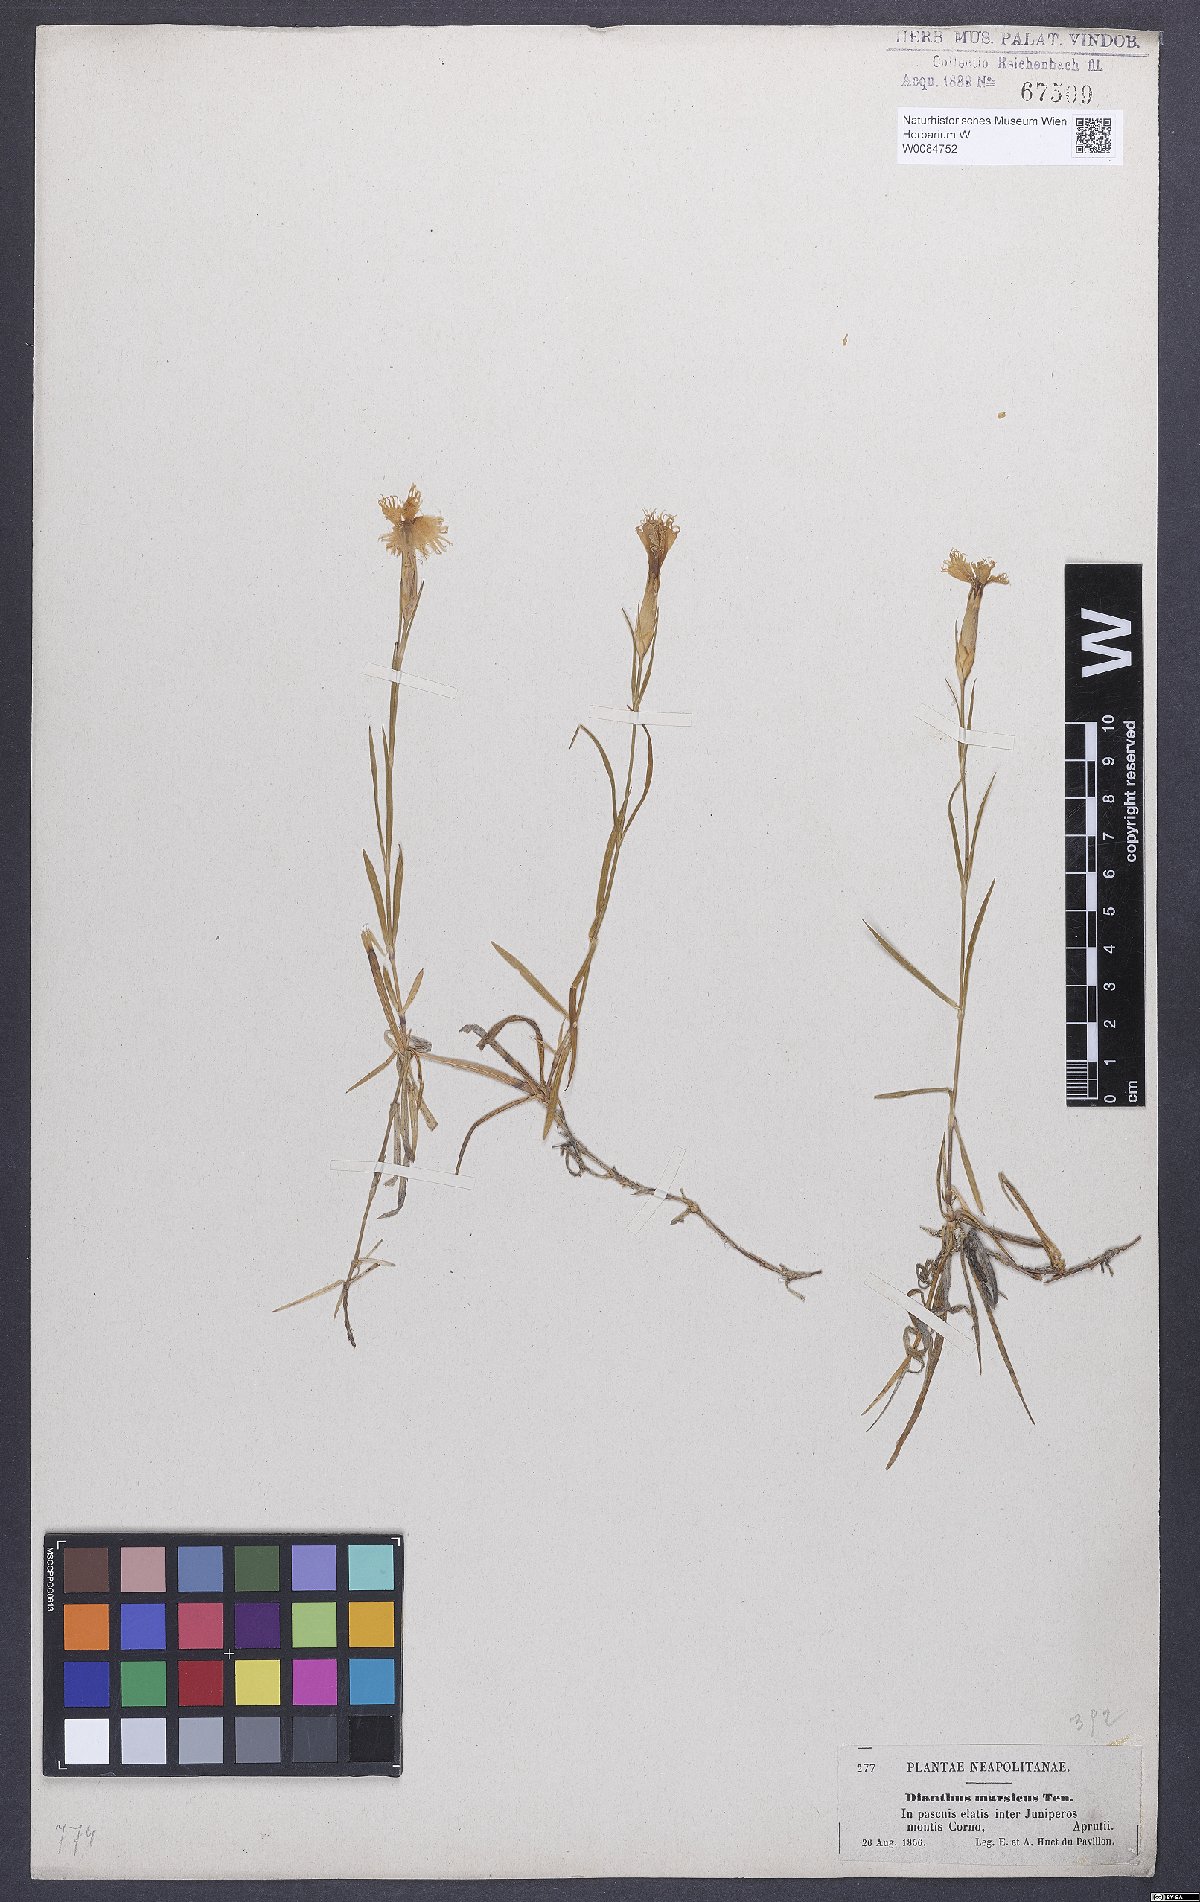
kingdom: Plantae
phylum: Tracheophyta
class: Magnoliopsida
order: Caryophyllales
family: Caryophyllaceae
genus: Dianthus
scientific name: Dianthus hyssopifolius
